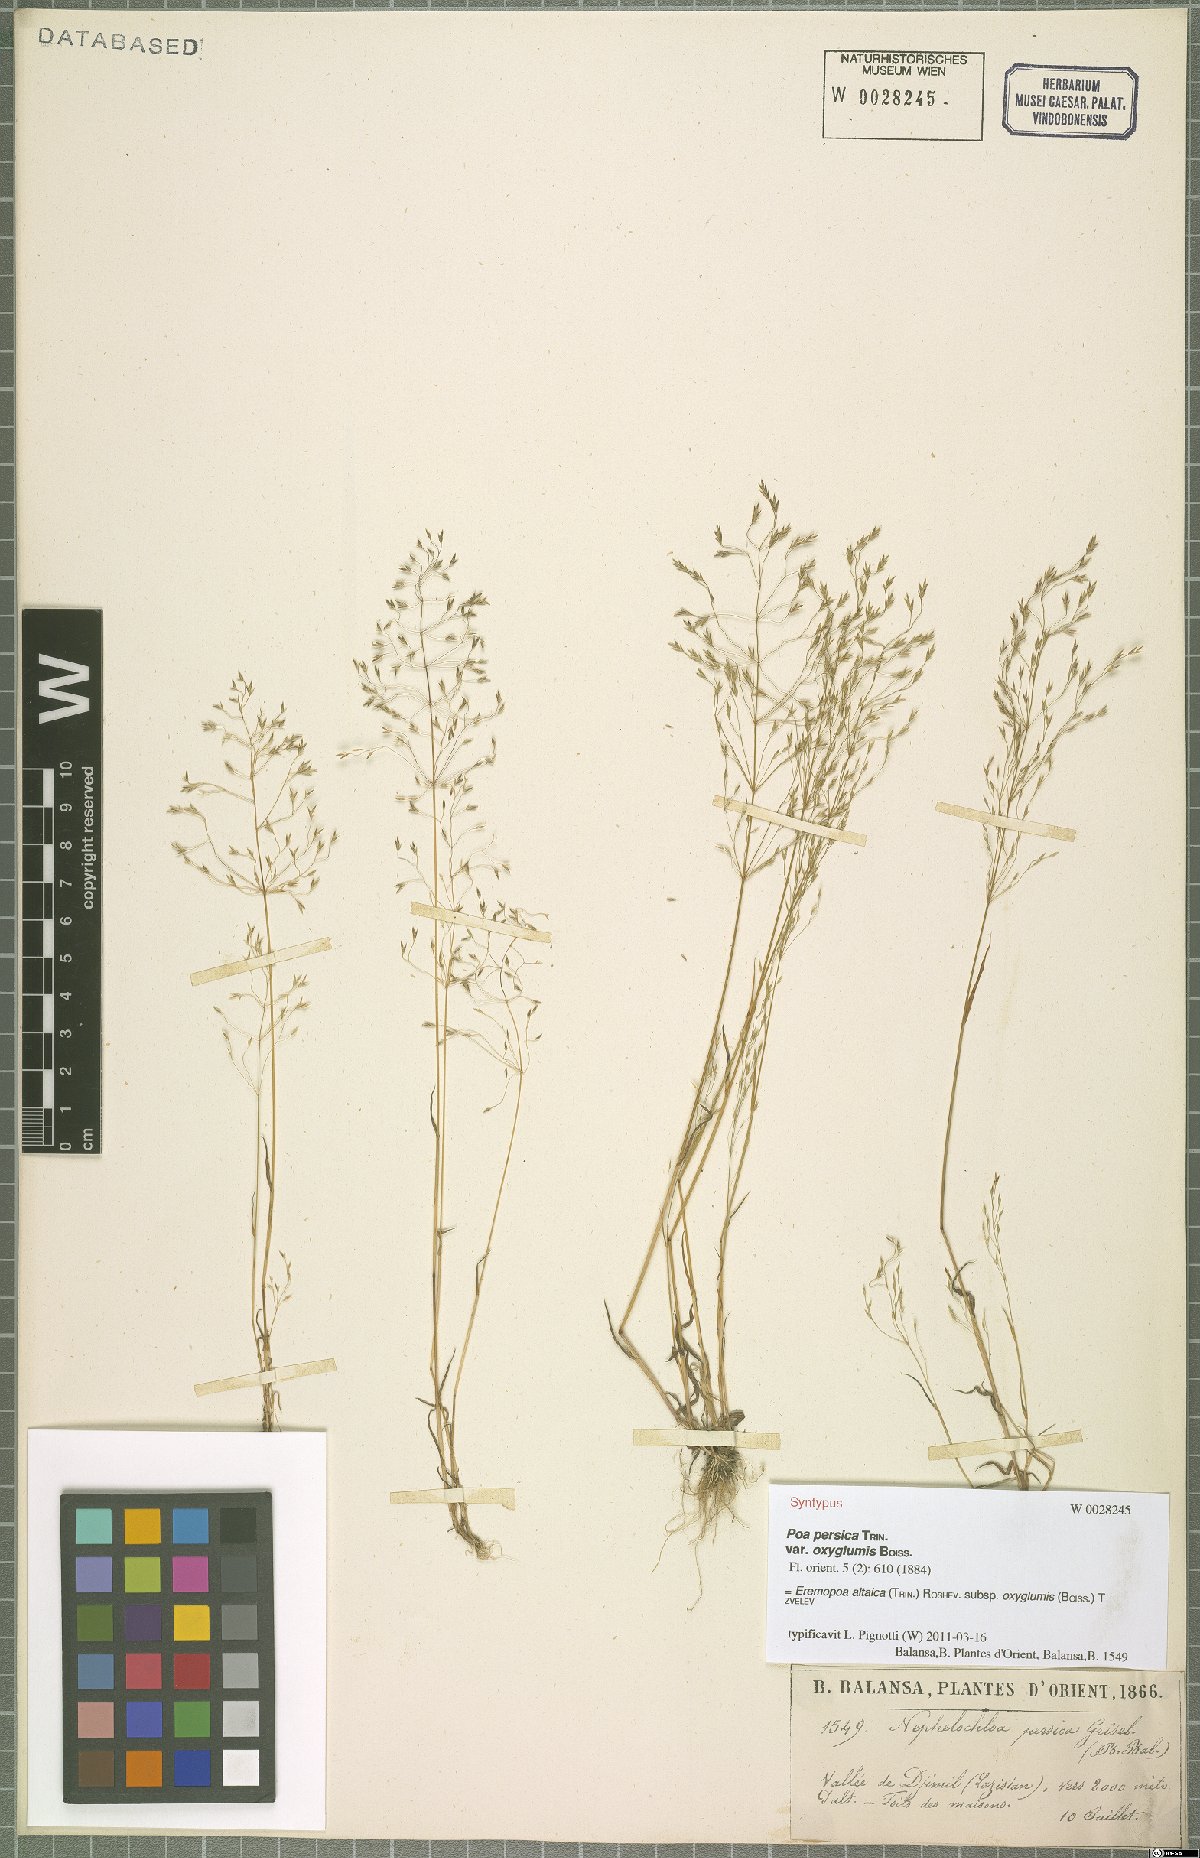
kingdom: Plantae
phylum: Tracheophyta
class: Liliopsida
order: Poales
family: Poaceae
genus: Poa
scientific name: Poa diaphora
